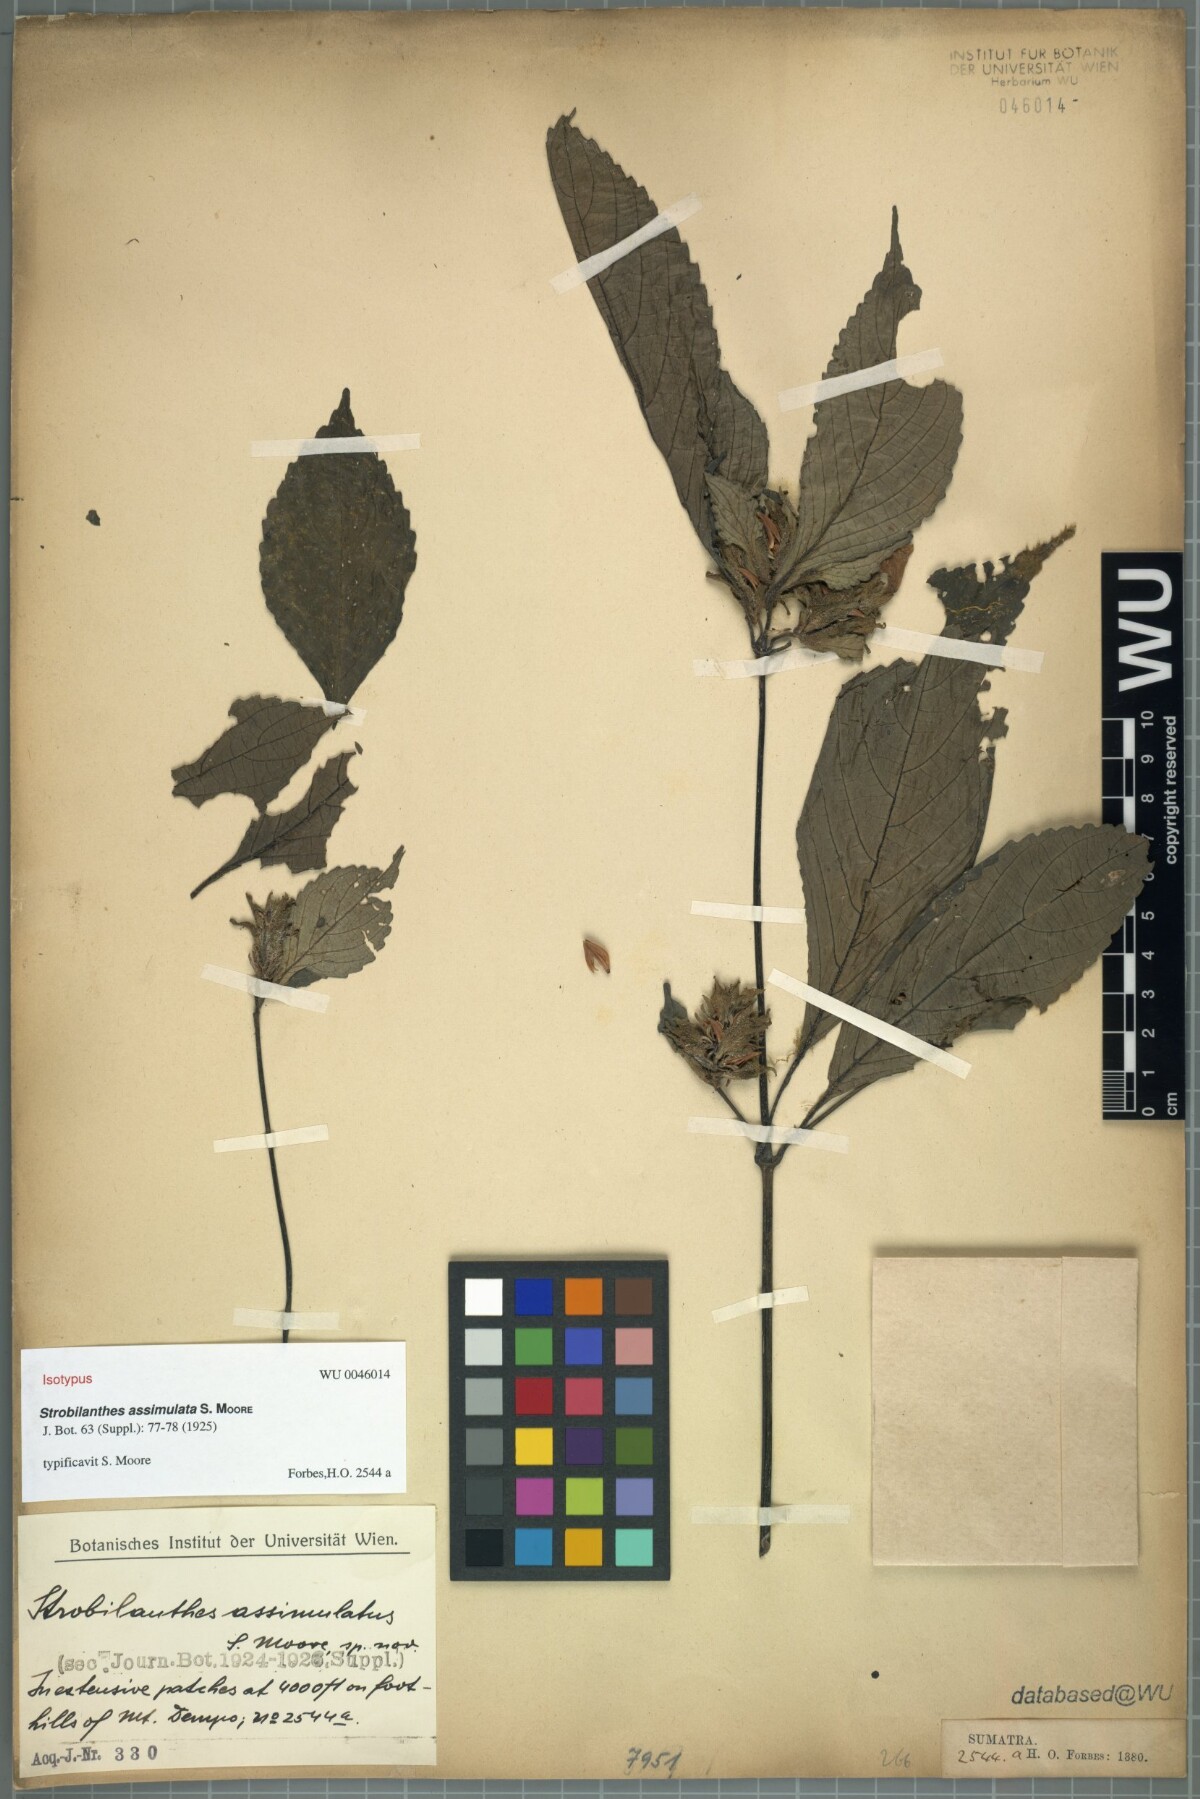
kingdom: Plantae
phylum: Tracheophyta
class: Magnoliopsida
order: Lamiales
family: Acanthaceae
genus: Strobilanthes
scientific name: Strobilanthes assimulata
